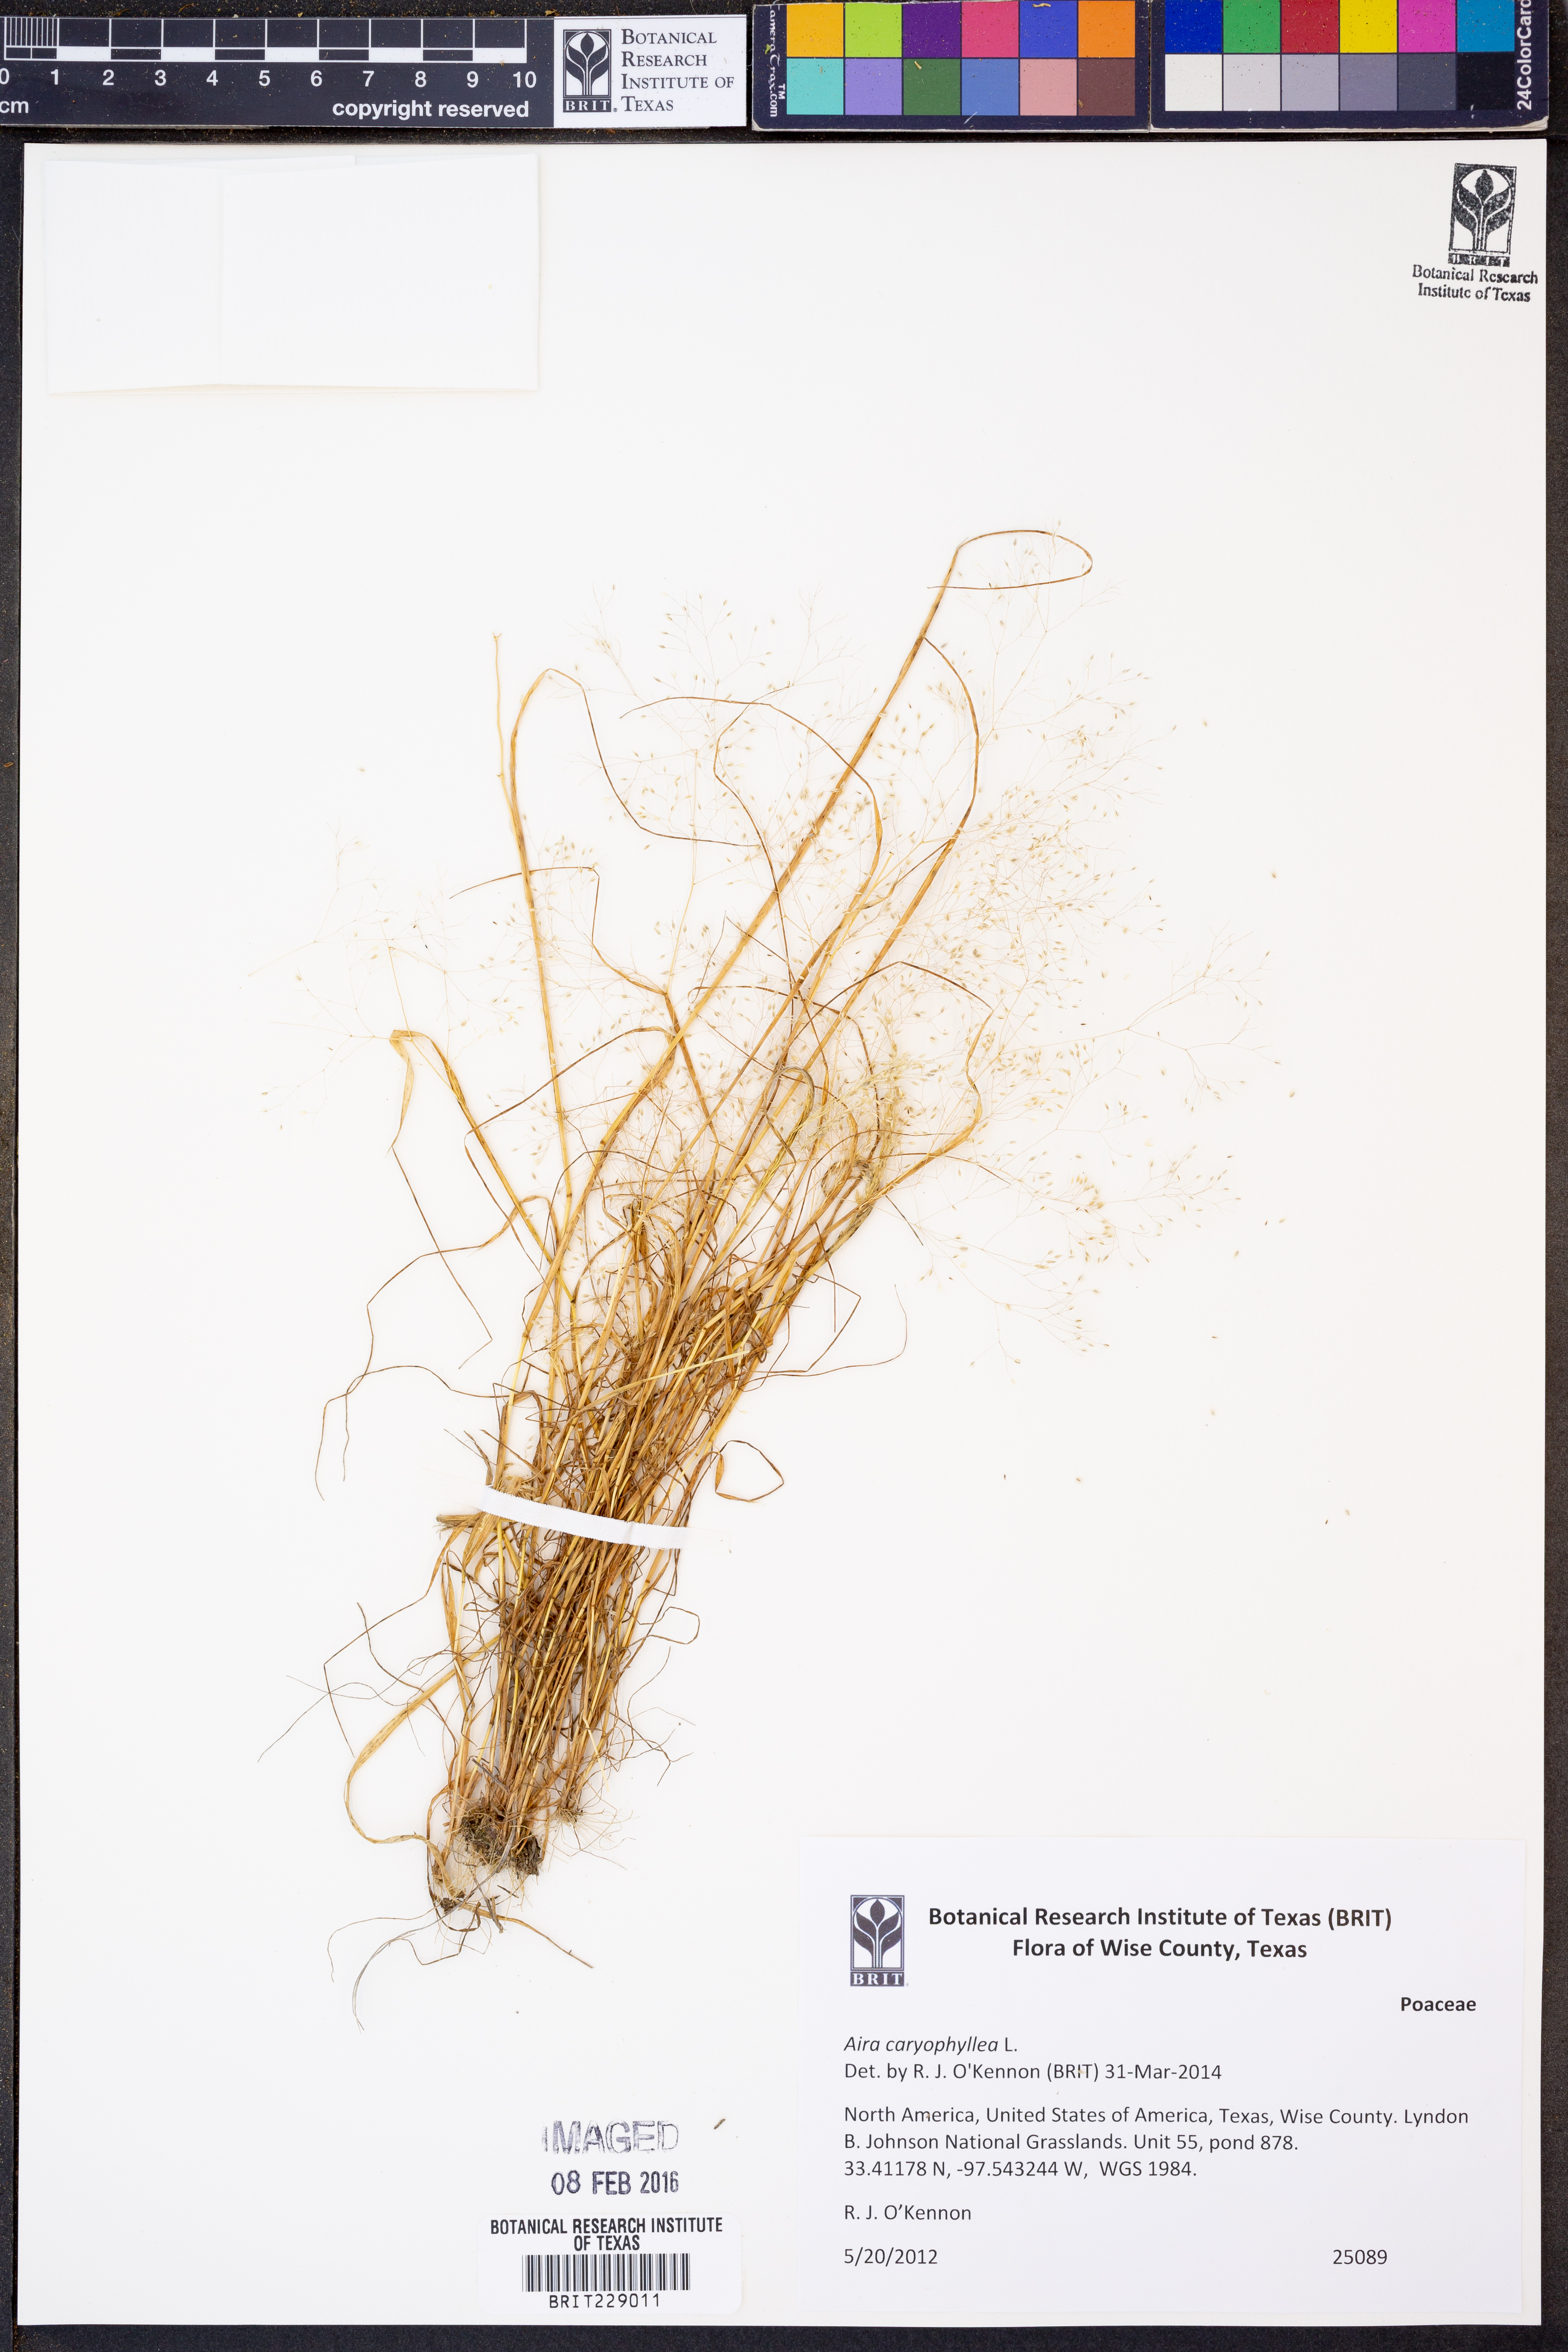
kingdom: Plantae
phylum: Tracheophyta
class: Liliopsida
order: Poales
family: Poaceae
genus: Aira
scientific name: Aira caryophyllea
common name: Silver hairgrass
